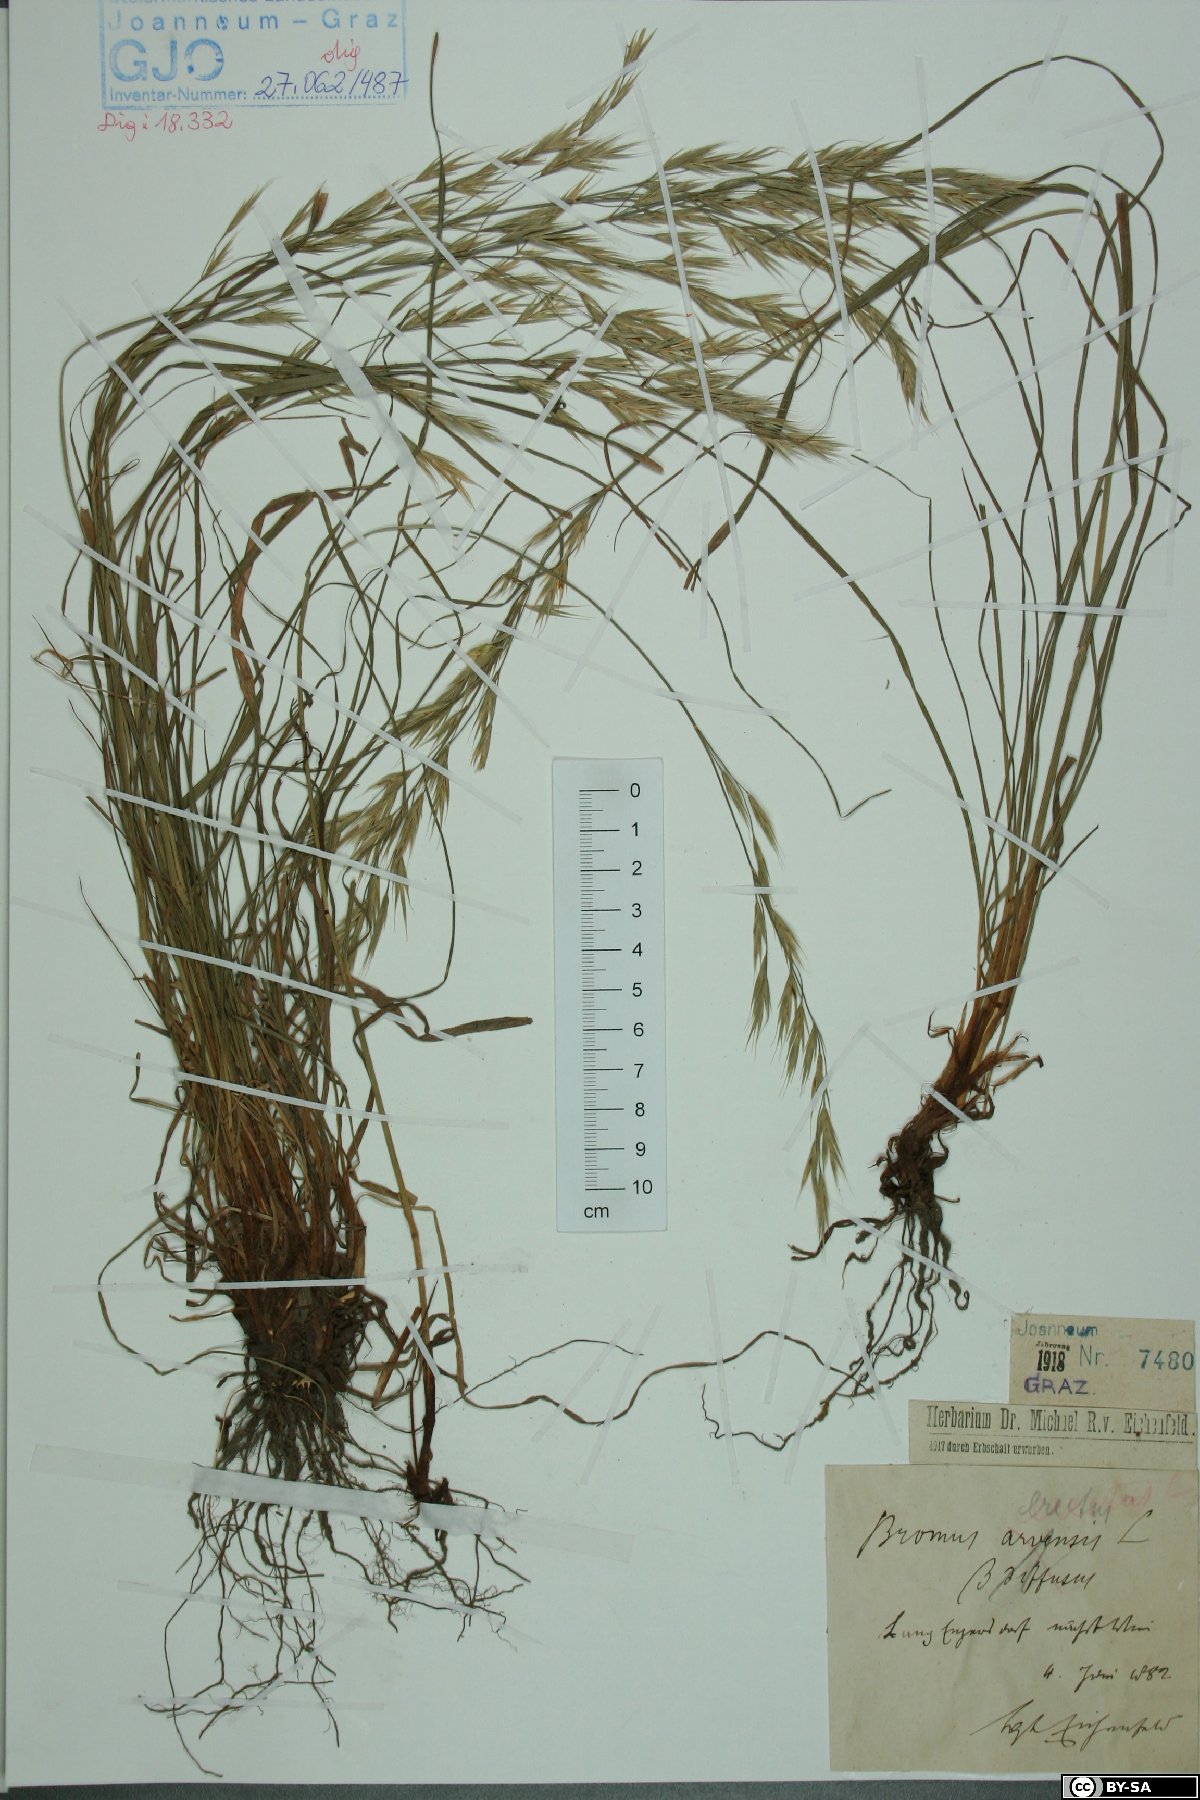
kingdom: Plantae
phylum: Tracheophyta
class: Liliopsida
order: Poales
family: Poaceae
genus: Bromus
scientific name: Bromus erectus
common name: Erect brome
